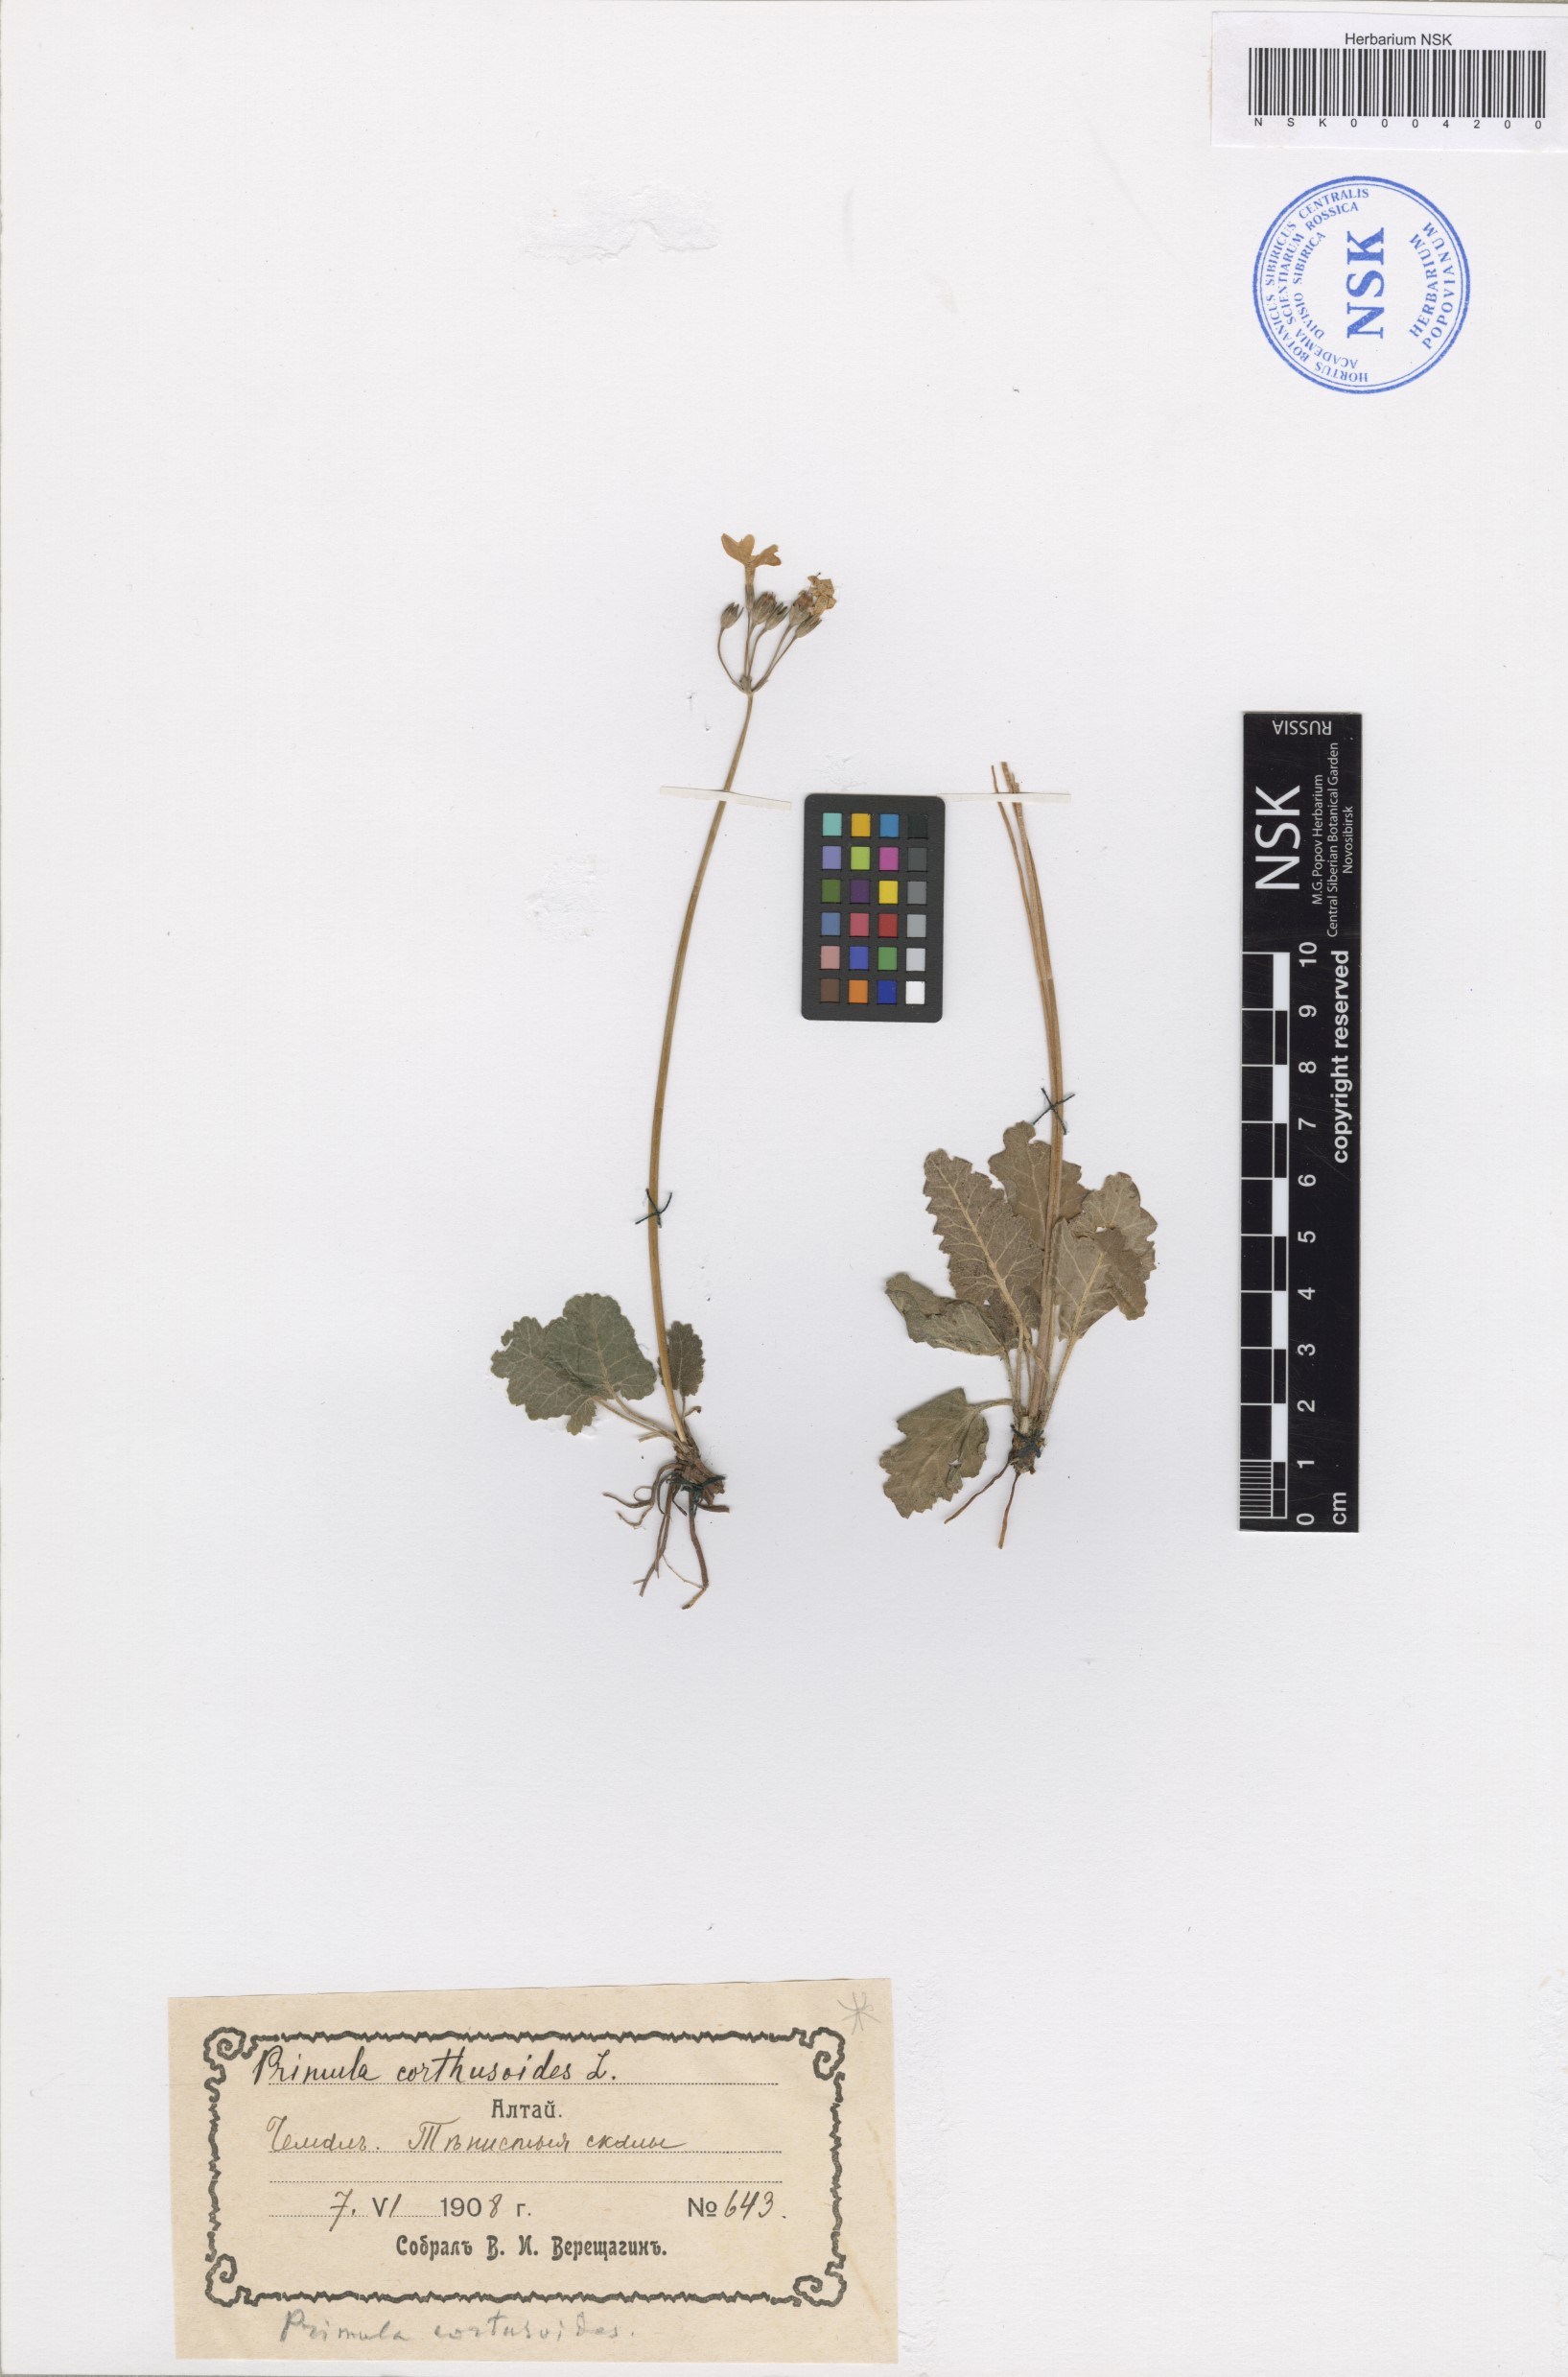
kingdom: Plantae
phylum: Tracheophyta
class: Magnoliopsida
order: Ericales
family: Primulaceae
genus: Primula
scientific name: Primula cortusoides
